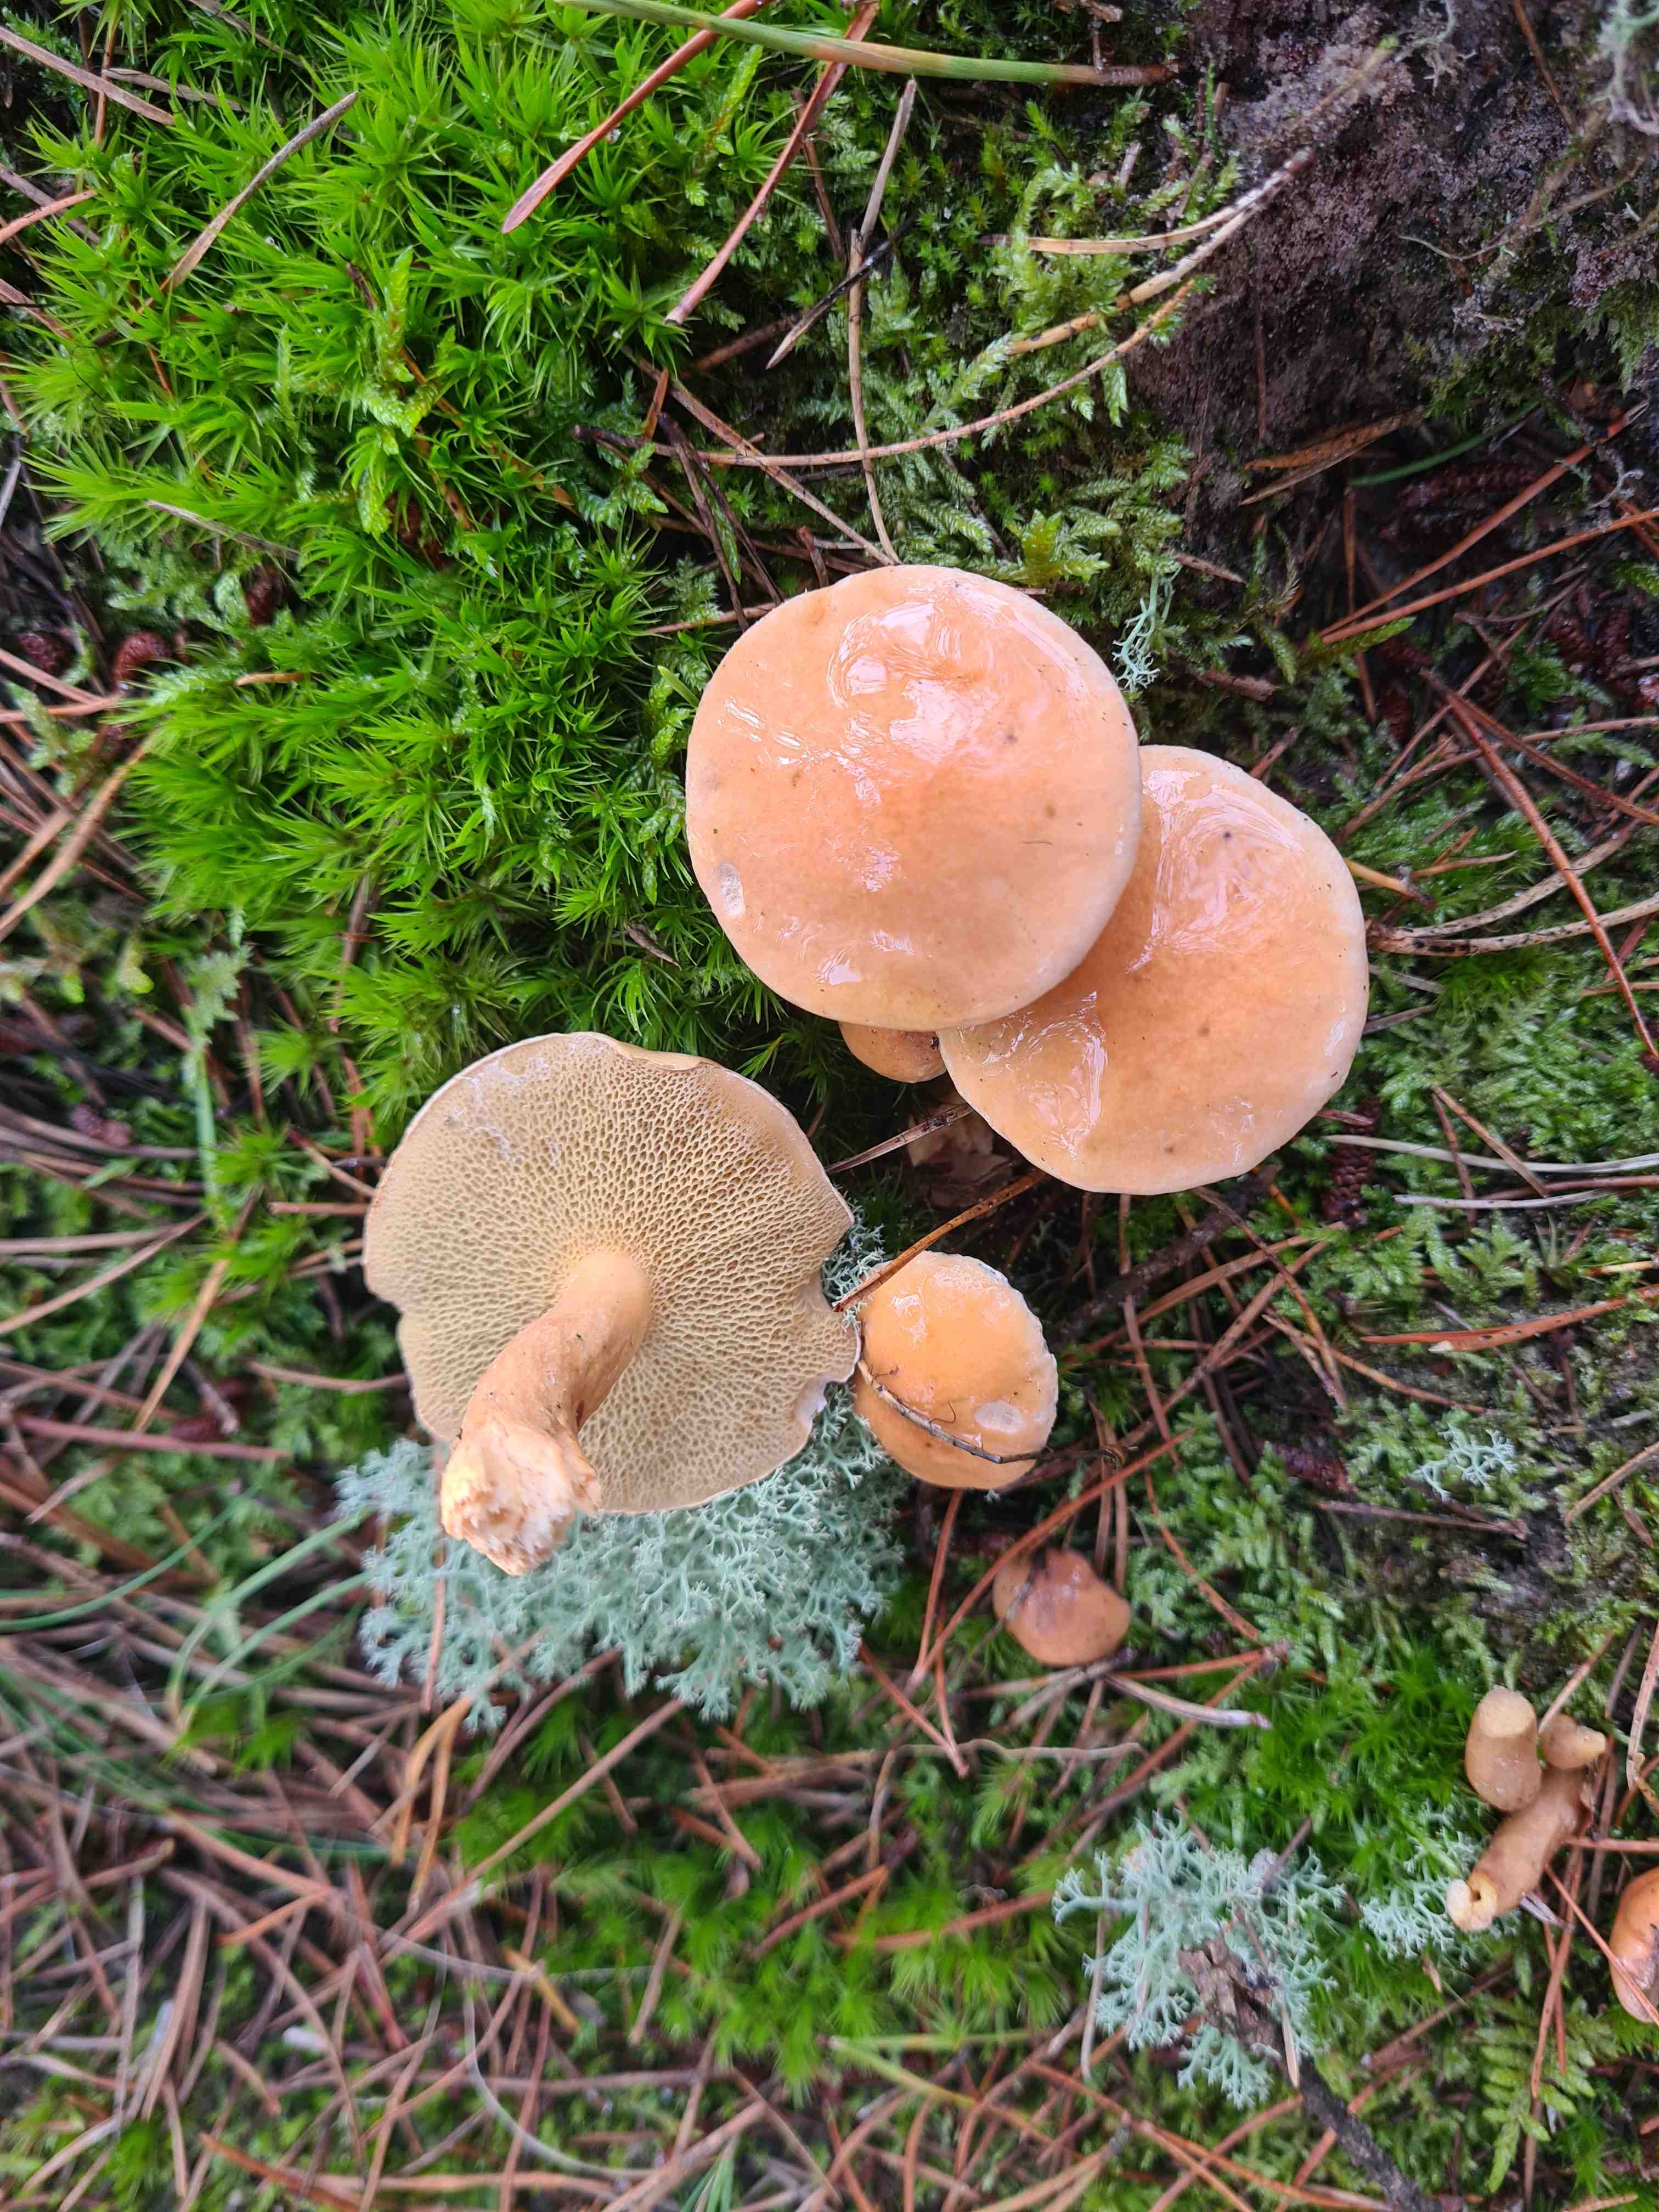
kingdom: Fungi
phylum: Basidiomycota
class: Agaricomycetes
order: Boletales
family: Suillaceae
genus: Suillus
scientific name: Suillus bovinus
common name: grovporet slimrørhat
